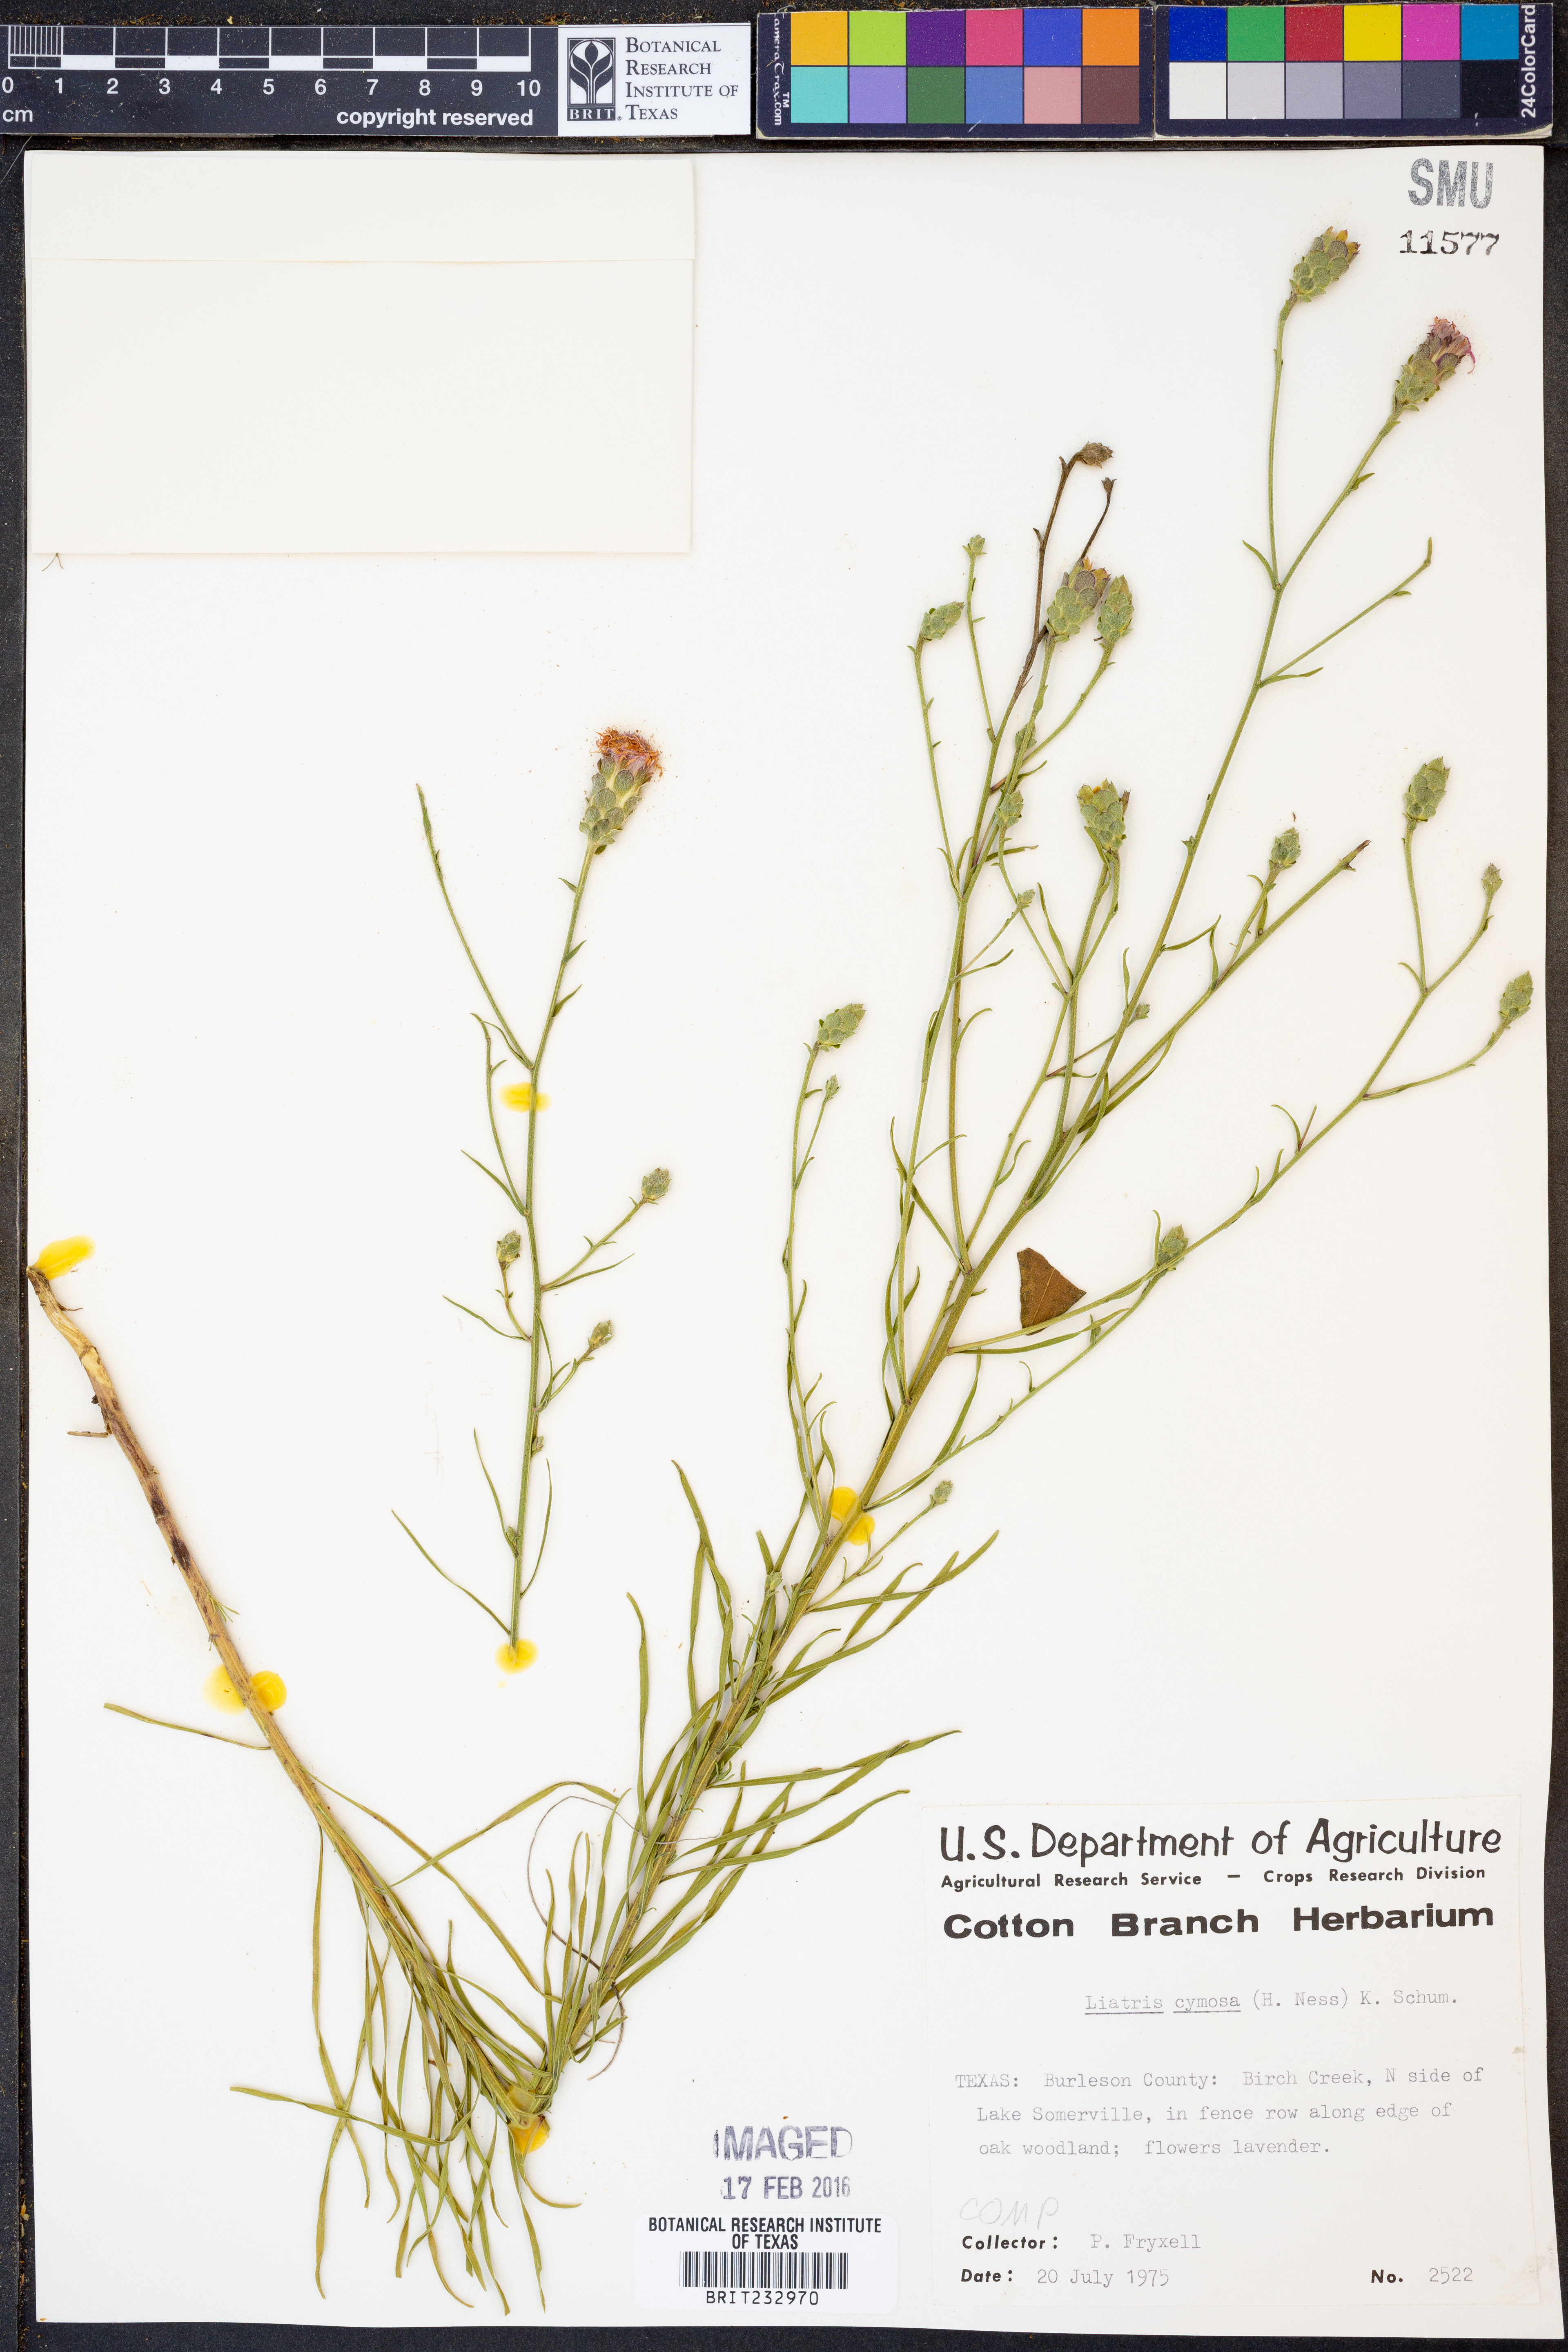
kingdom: Plantae
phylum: Tracheophyta
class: Magnoliopsida
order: Asterales
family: Asteraceae
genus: Liatris
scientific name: Liatris cymosa
